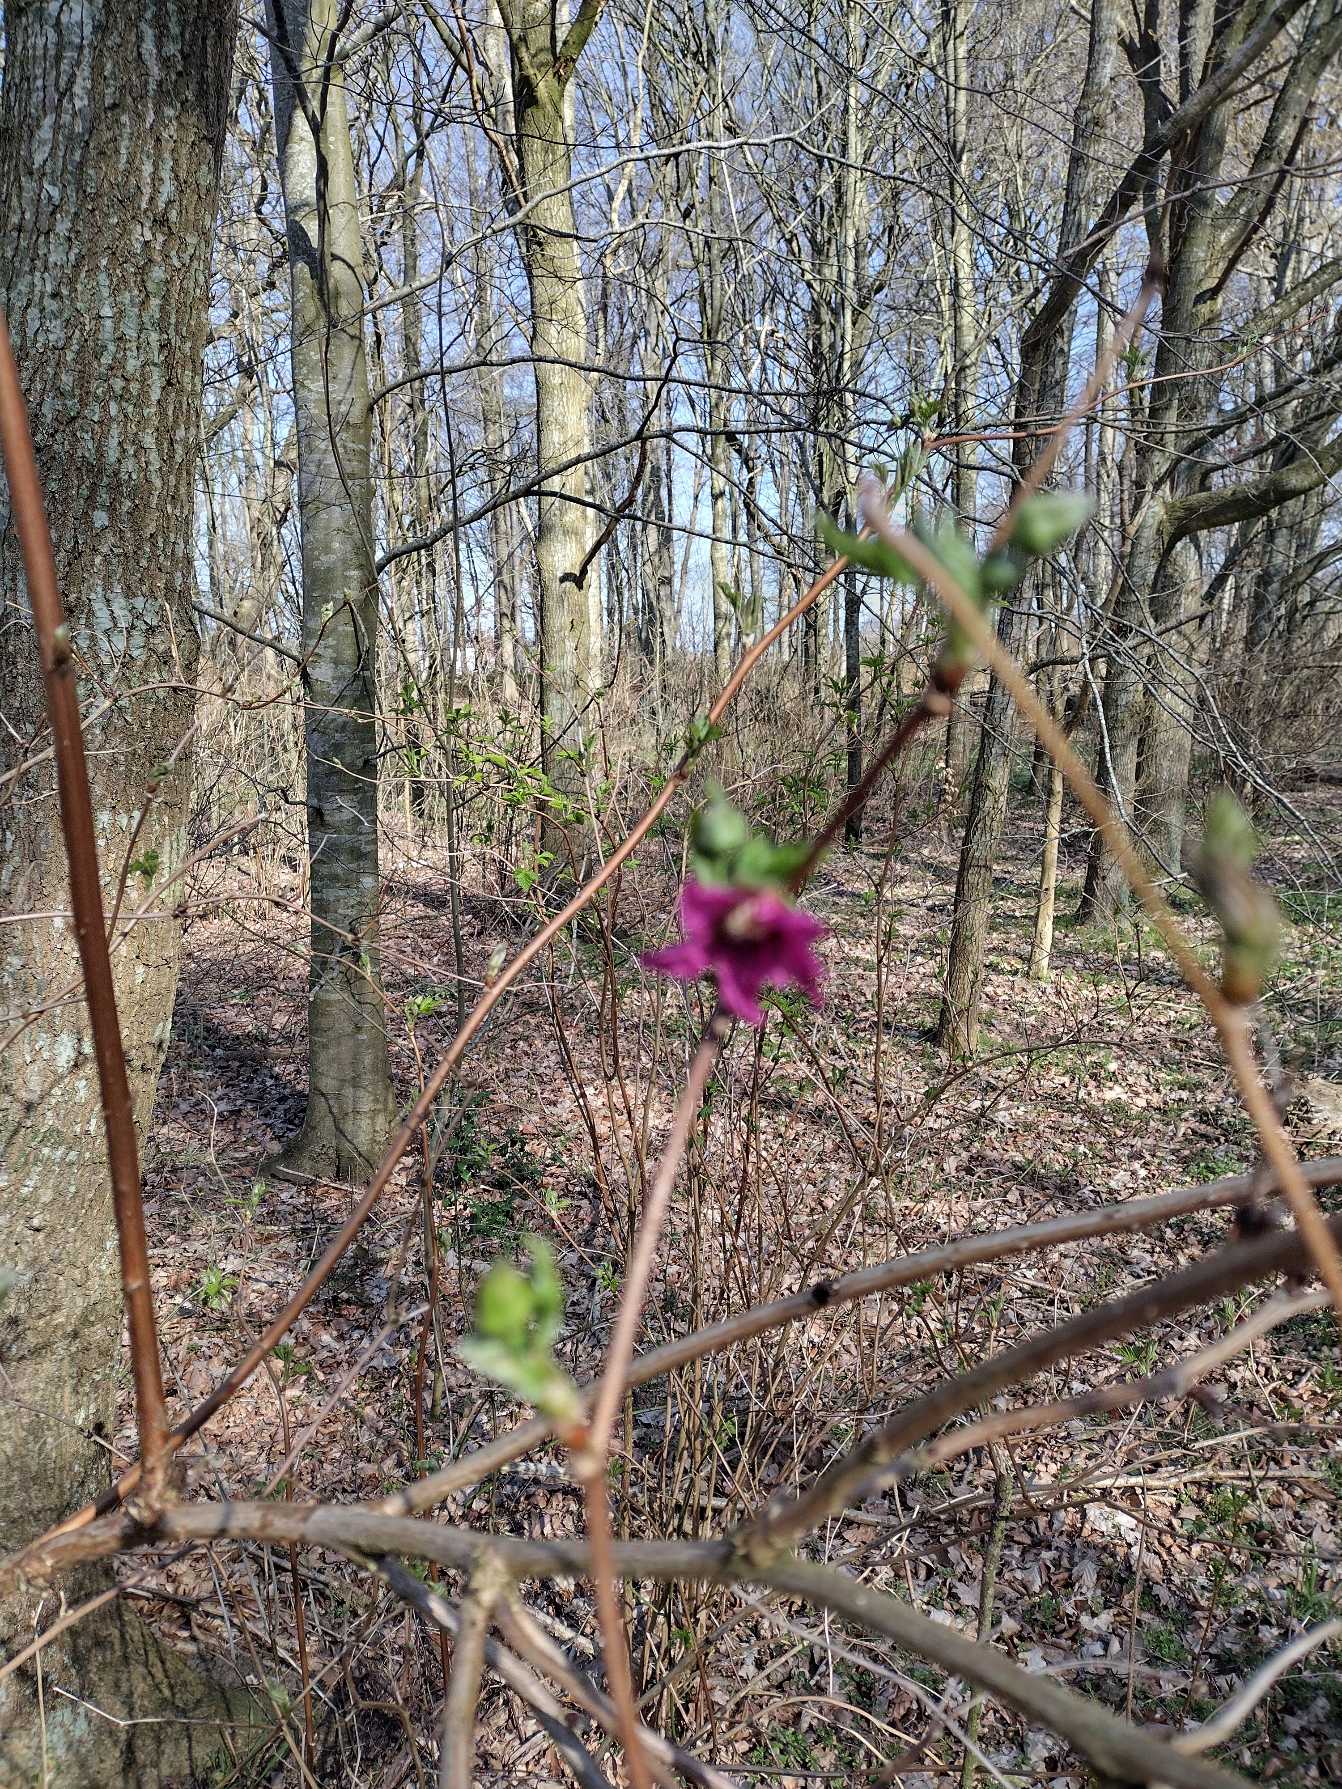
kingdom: Plantae
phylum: Tracheophyta
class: Magnoliopsida
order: Rosales
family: Rosaceae
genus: Rubus
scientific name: Rubus spectabilis
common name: Laksebær
